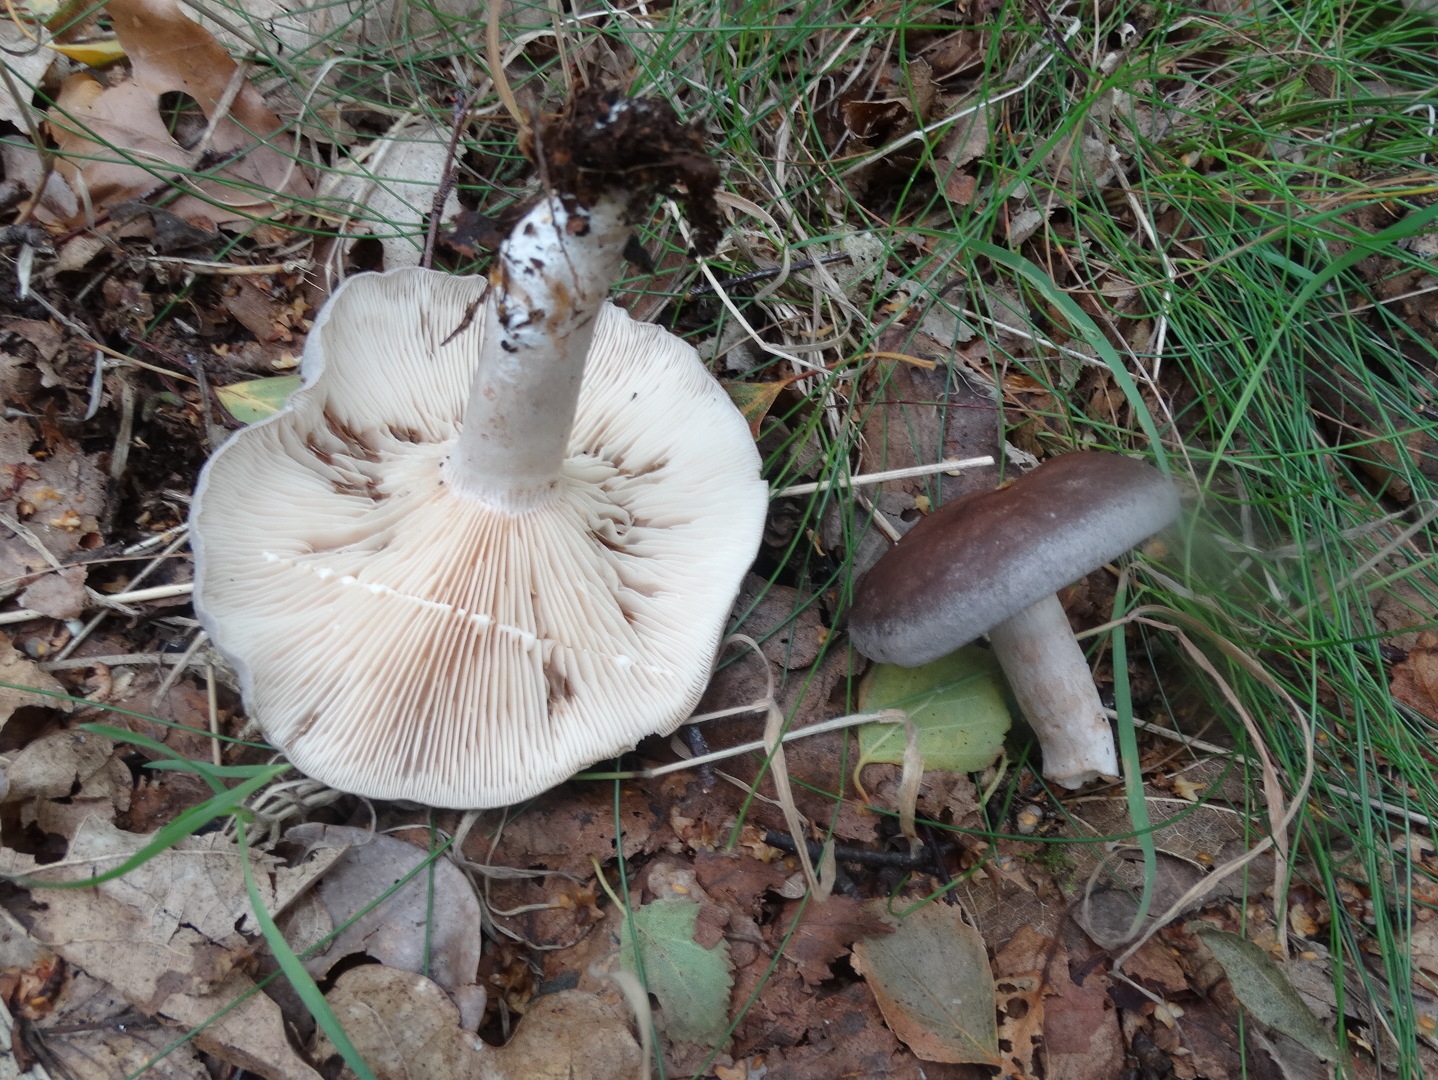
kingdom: Fungi
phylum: Basidiomycota
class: Agaricomycetes
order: Russulales
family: Russulaceae
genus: Lactarius
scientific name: Lactarius vietus
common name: violetgrå mælkehat
